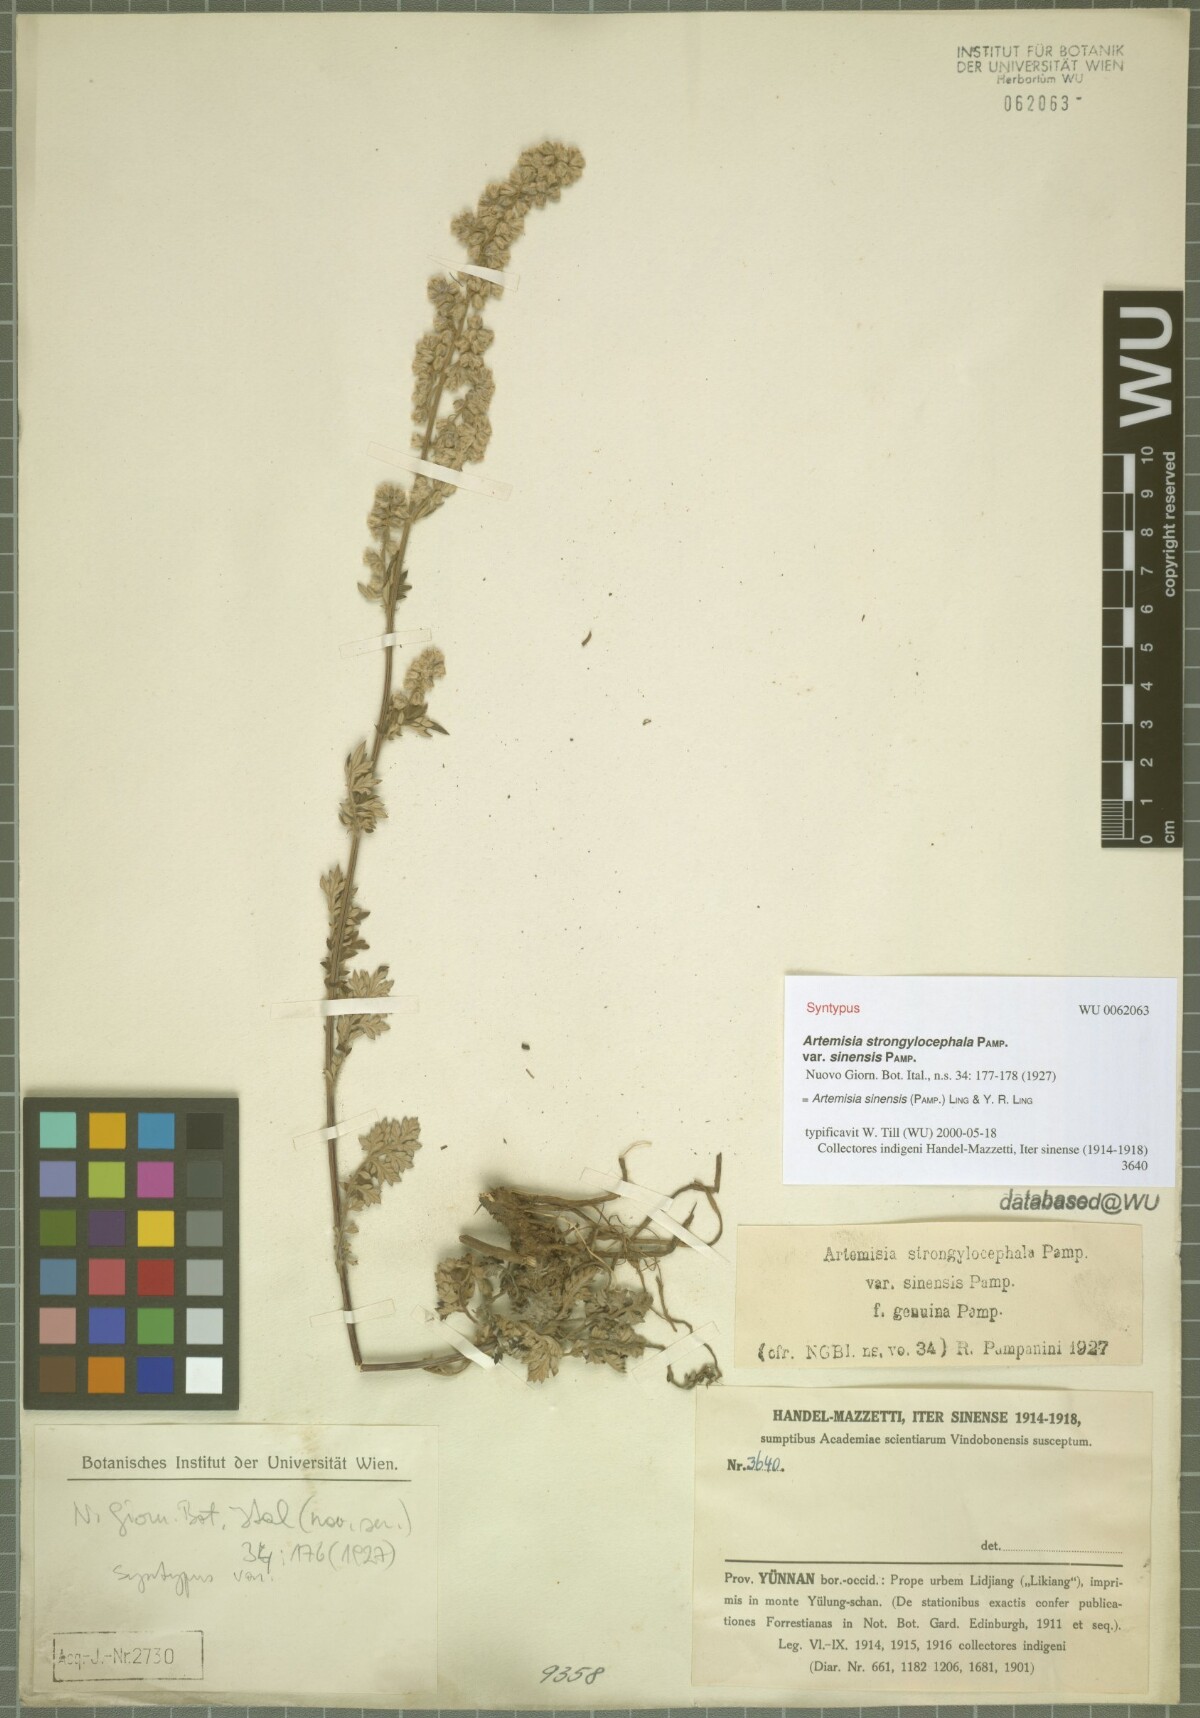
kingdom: Plantae
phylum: Tracheophyta
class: Magnoliopsida
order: Asterales
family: Asteraceae
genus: Artemisia
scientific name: Artemisia neosinensis
